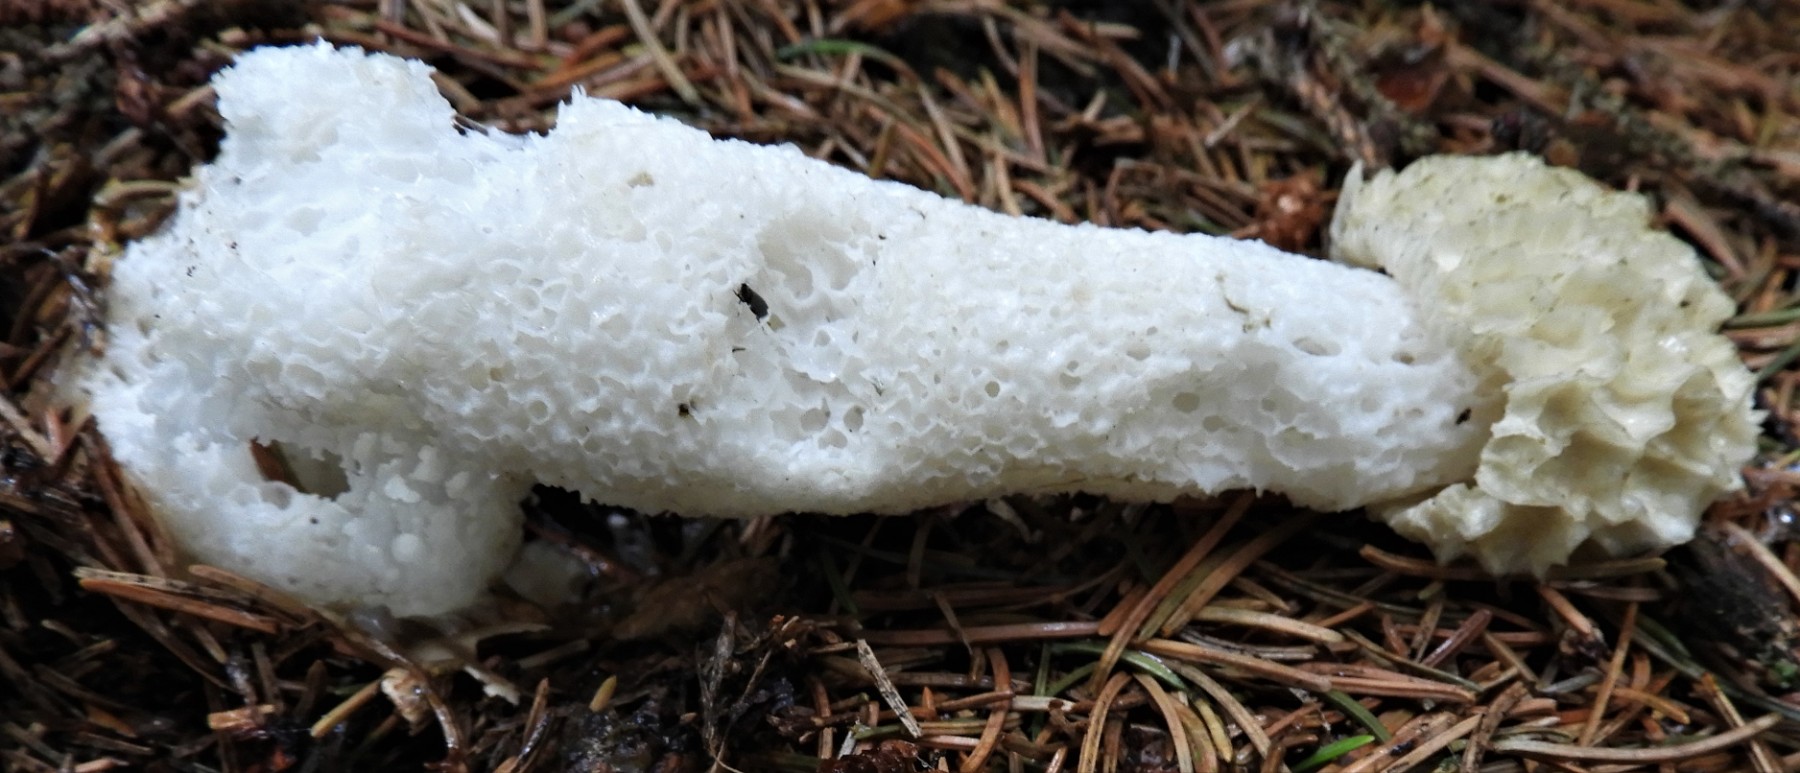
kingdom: Fungi
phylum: Basidiomycota
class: Agaricomycetes
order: Phallales
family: Phallaceae
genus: Phallus
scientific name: Phallus impudicus
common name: almindelig stinksvamp
